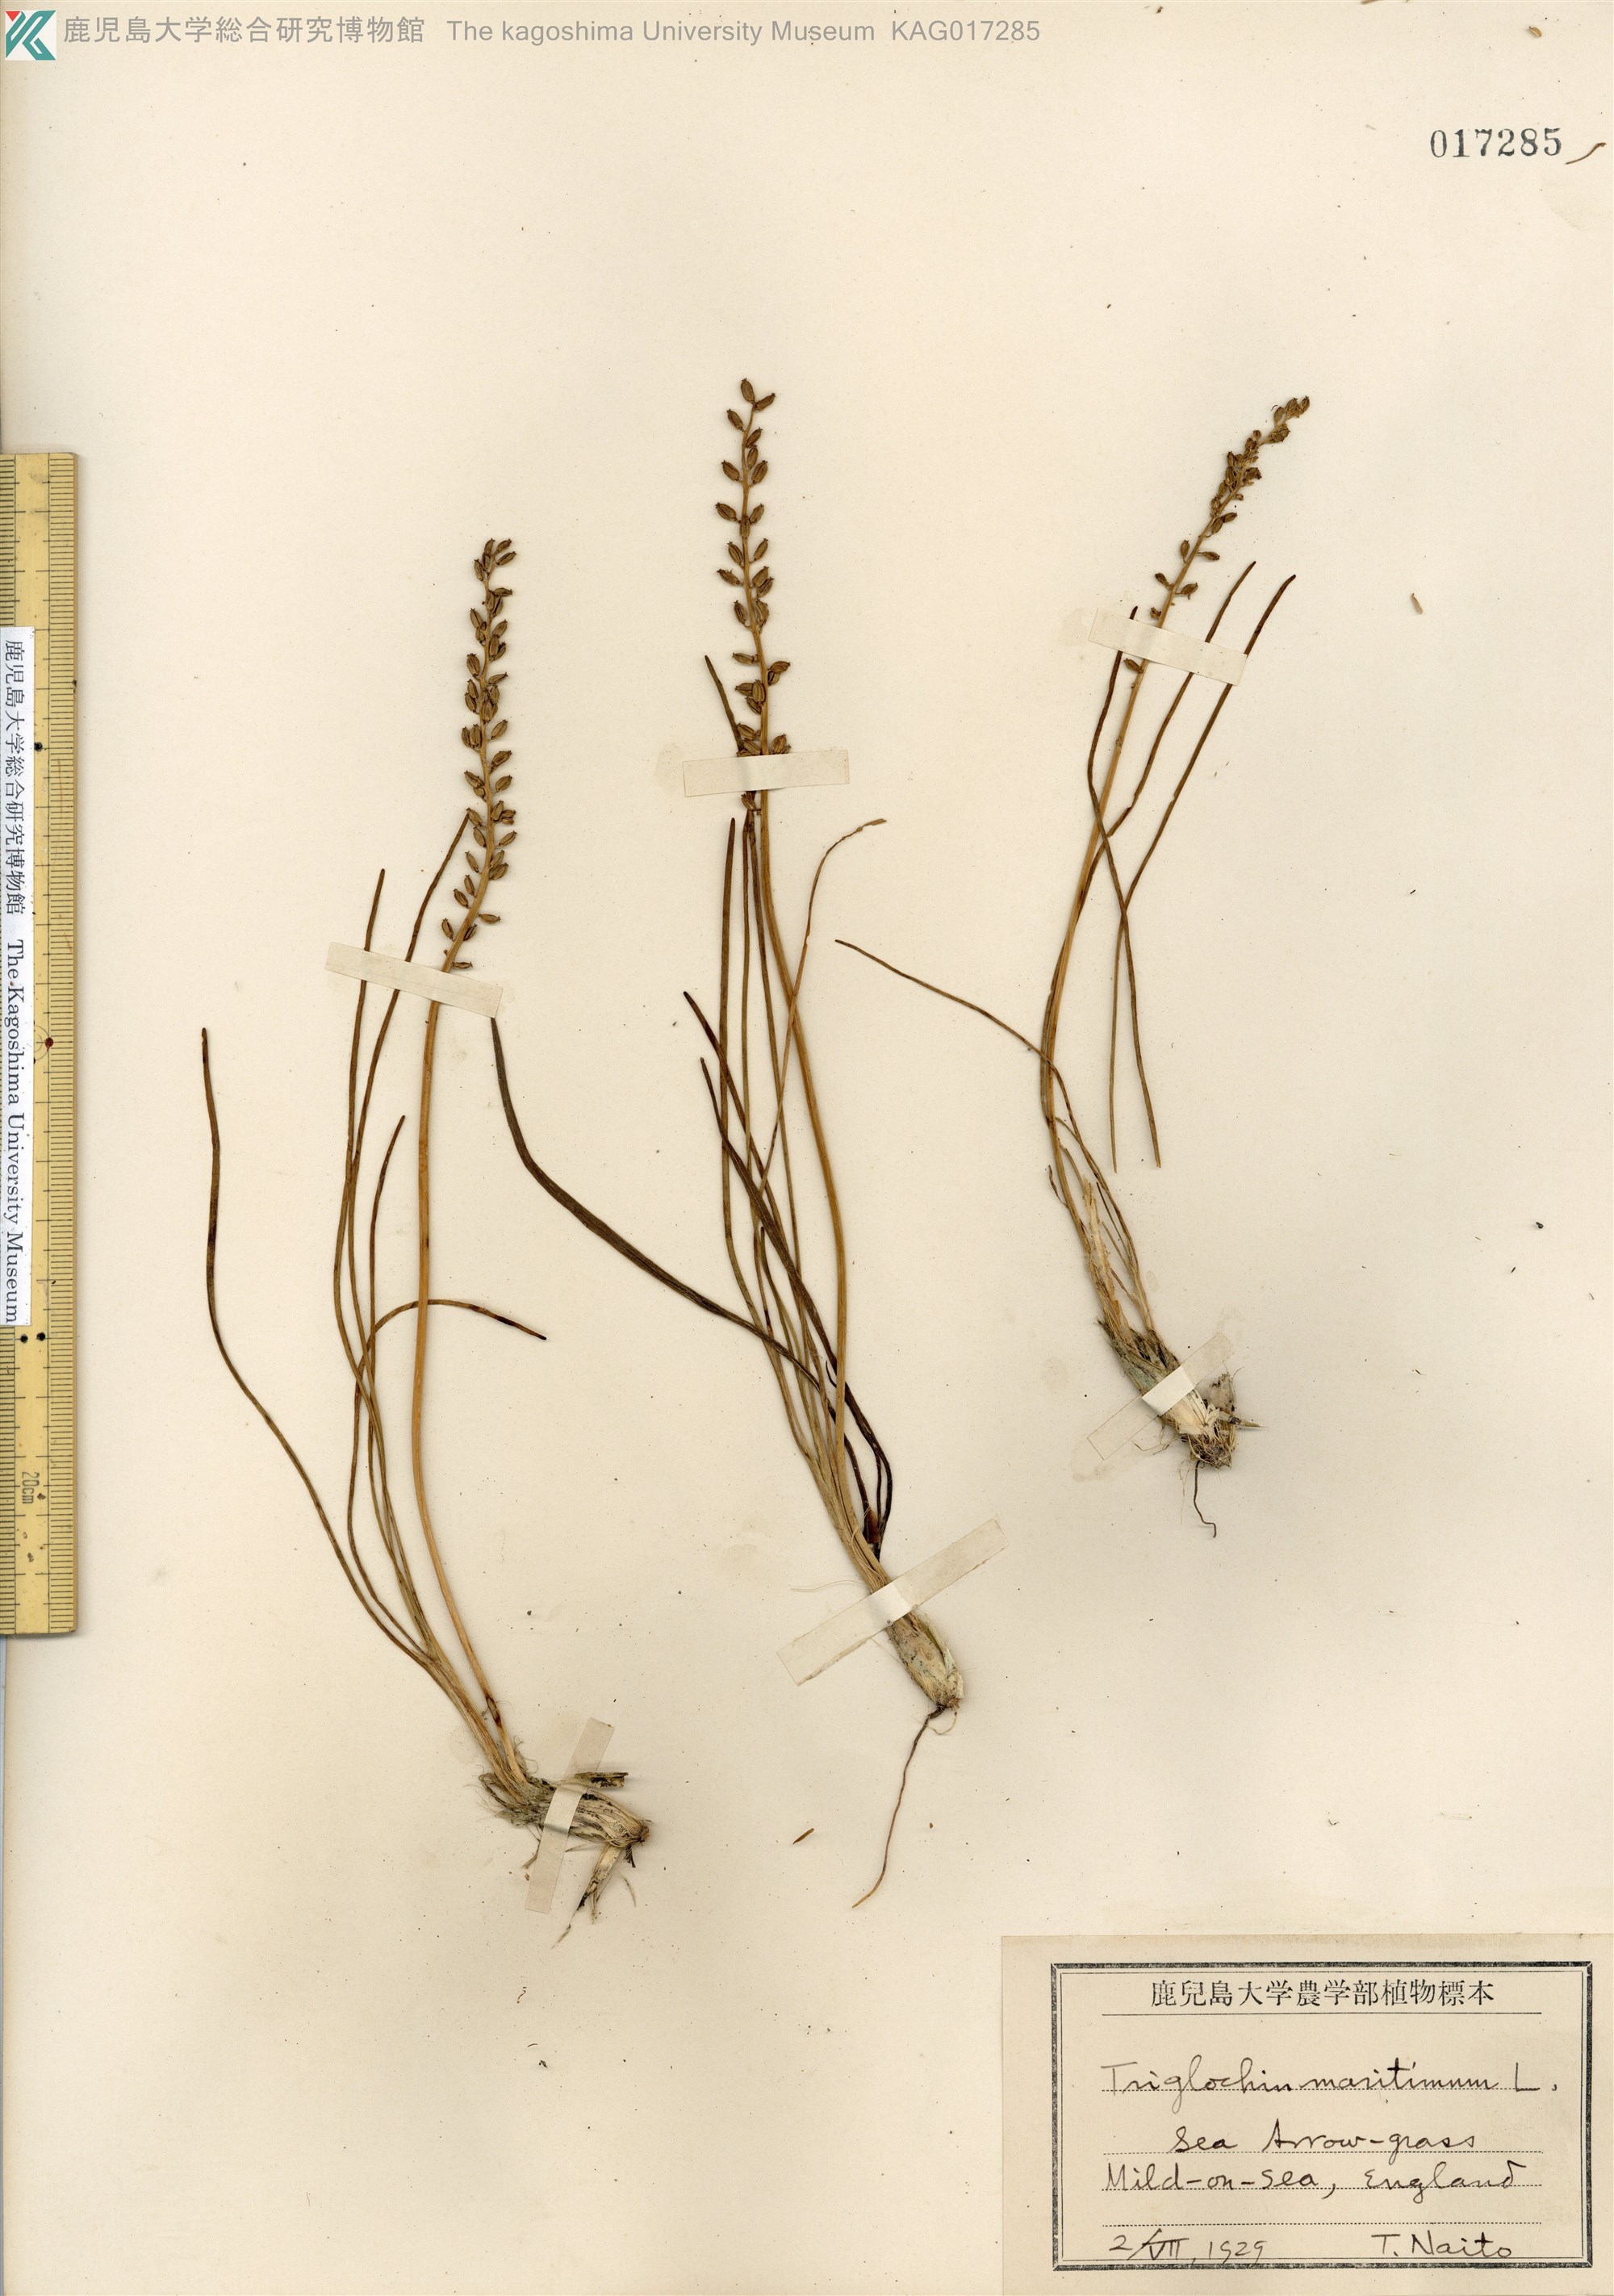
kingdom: Plantae
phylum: Tracheophyta
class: Liliopsida
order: Alismatales
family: Juncaginaceae
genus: Triglochin
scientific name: Triglochin maritima
